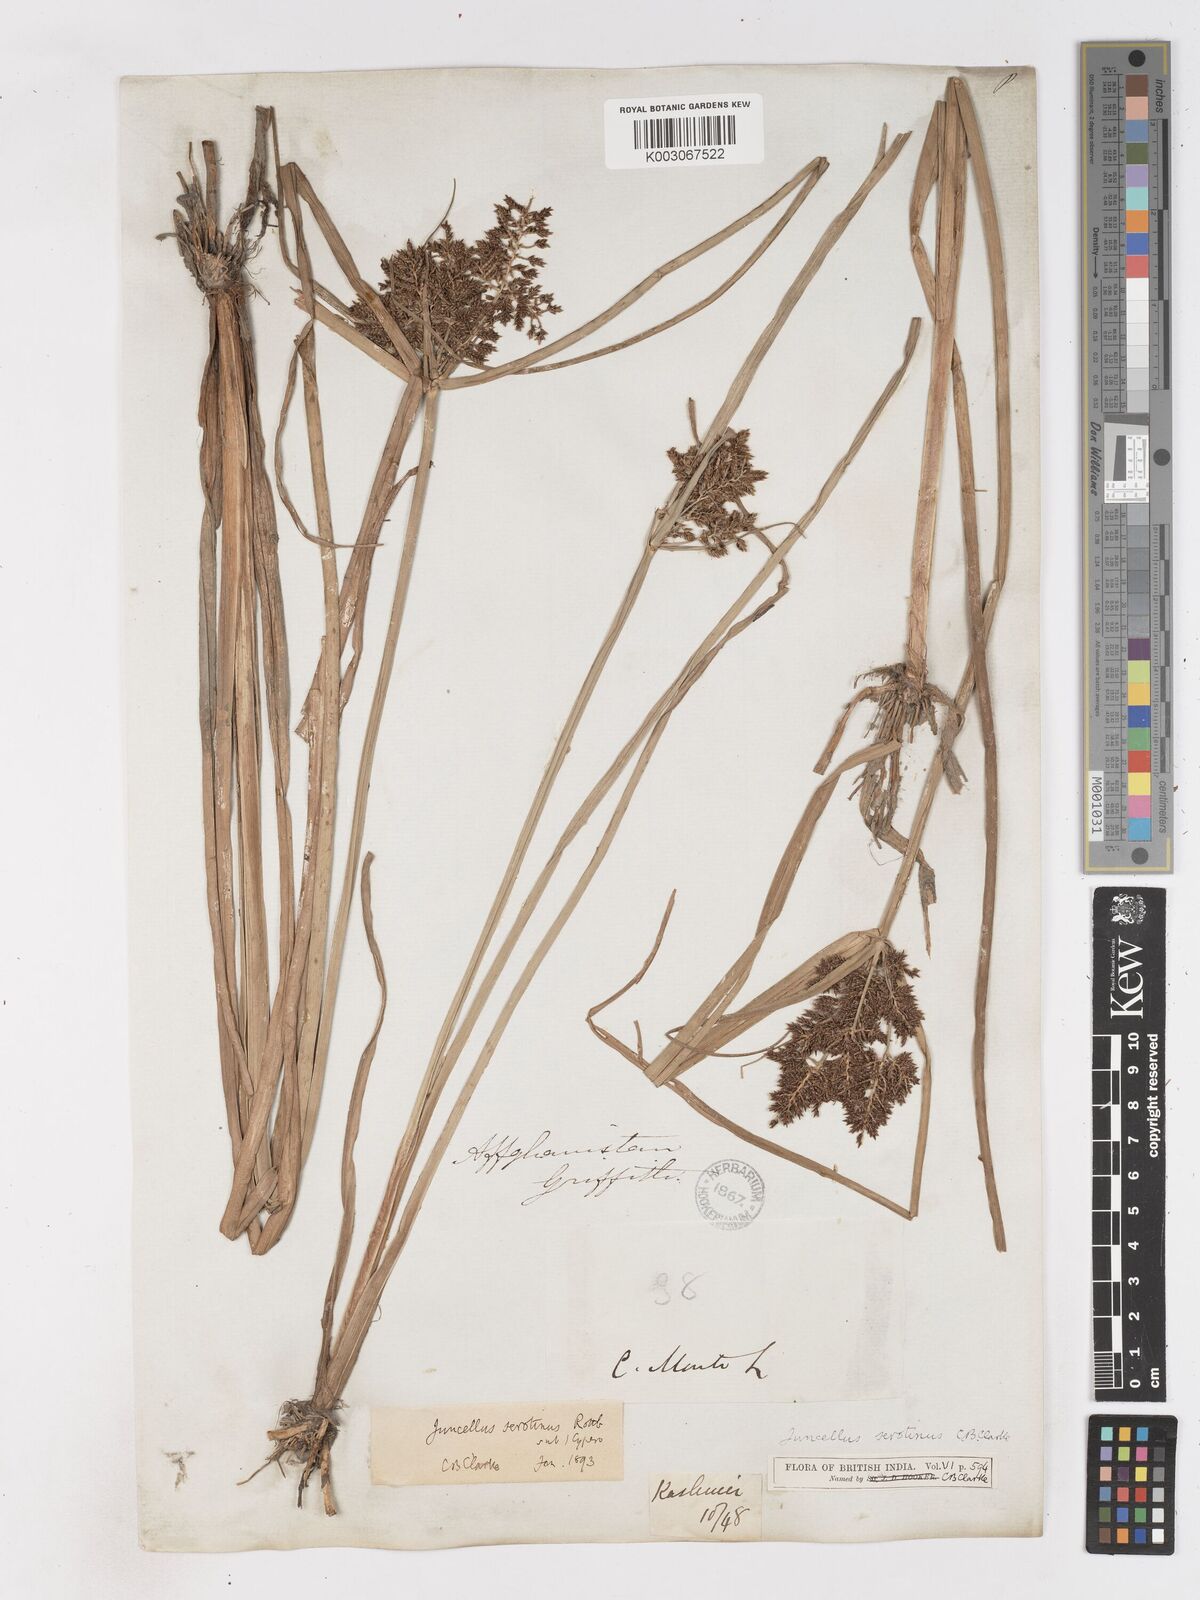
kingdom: Plantae
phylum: Tracheophyta
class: Liliopsida
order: Poales
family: Cyperaceae
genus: Cyperus
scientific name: Cyperus serotinus
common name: Tidalmarsh flatsedge
